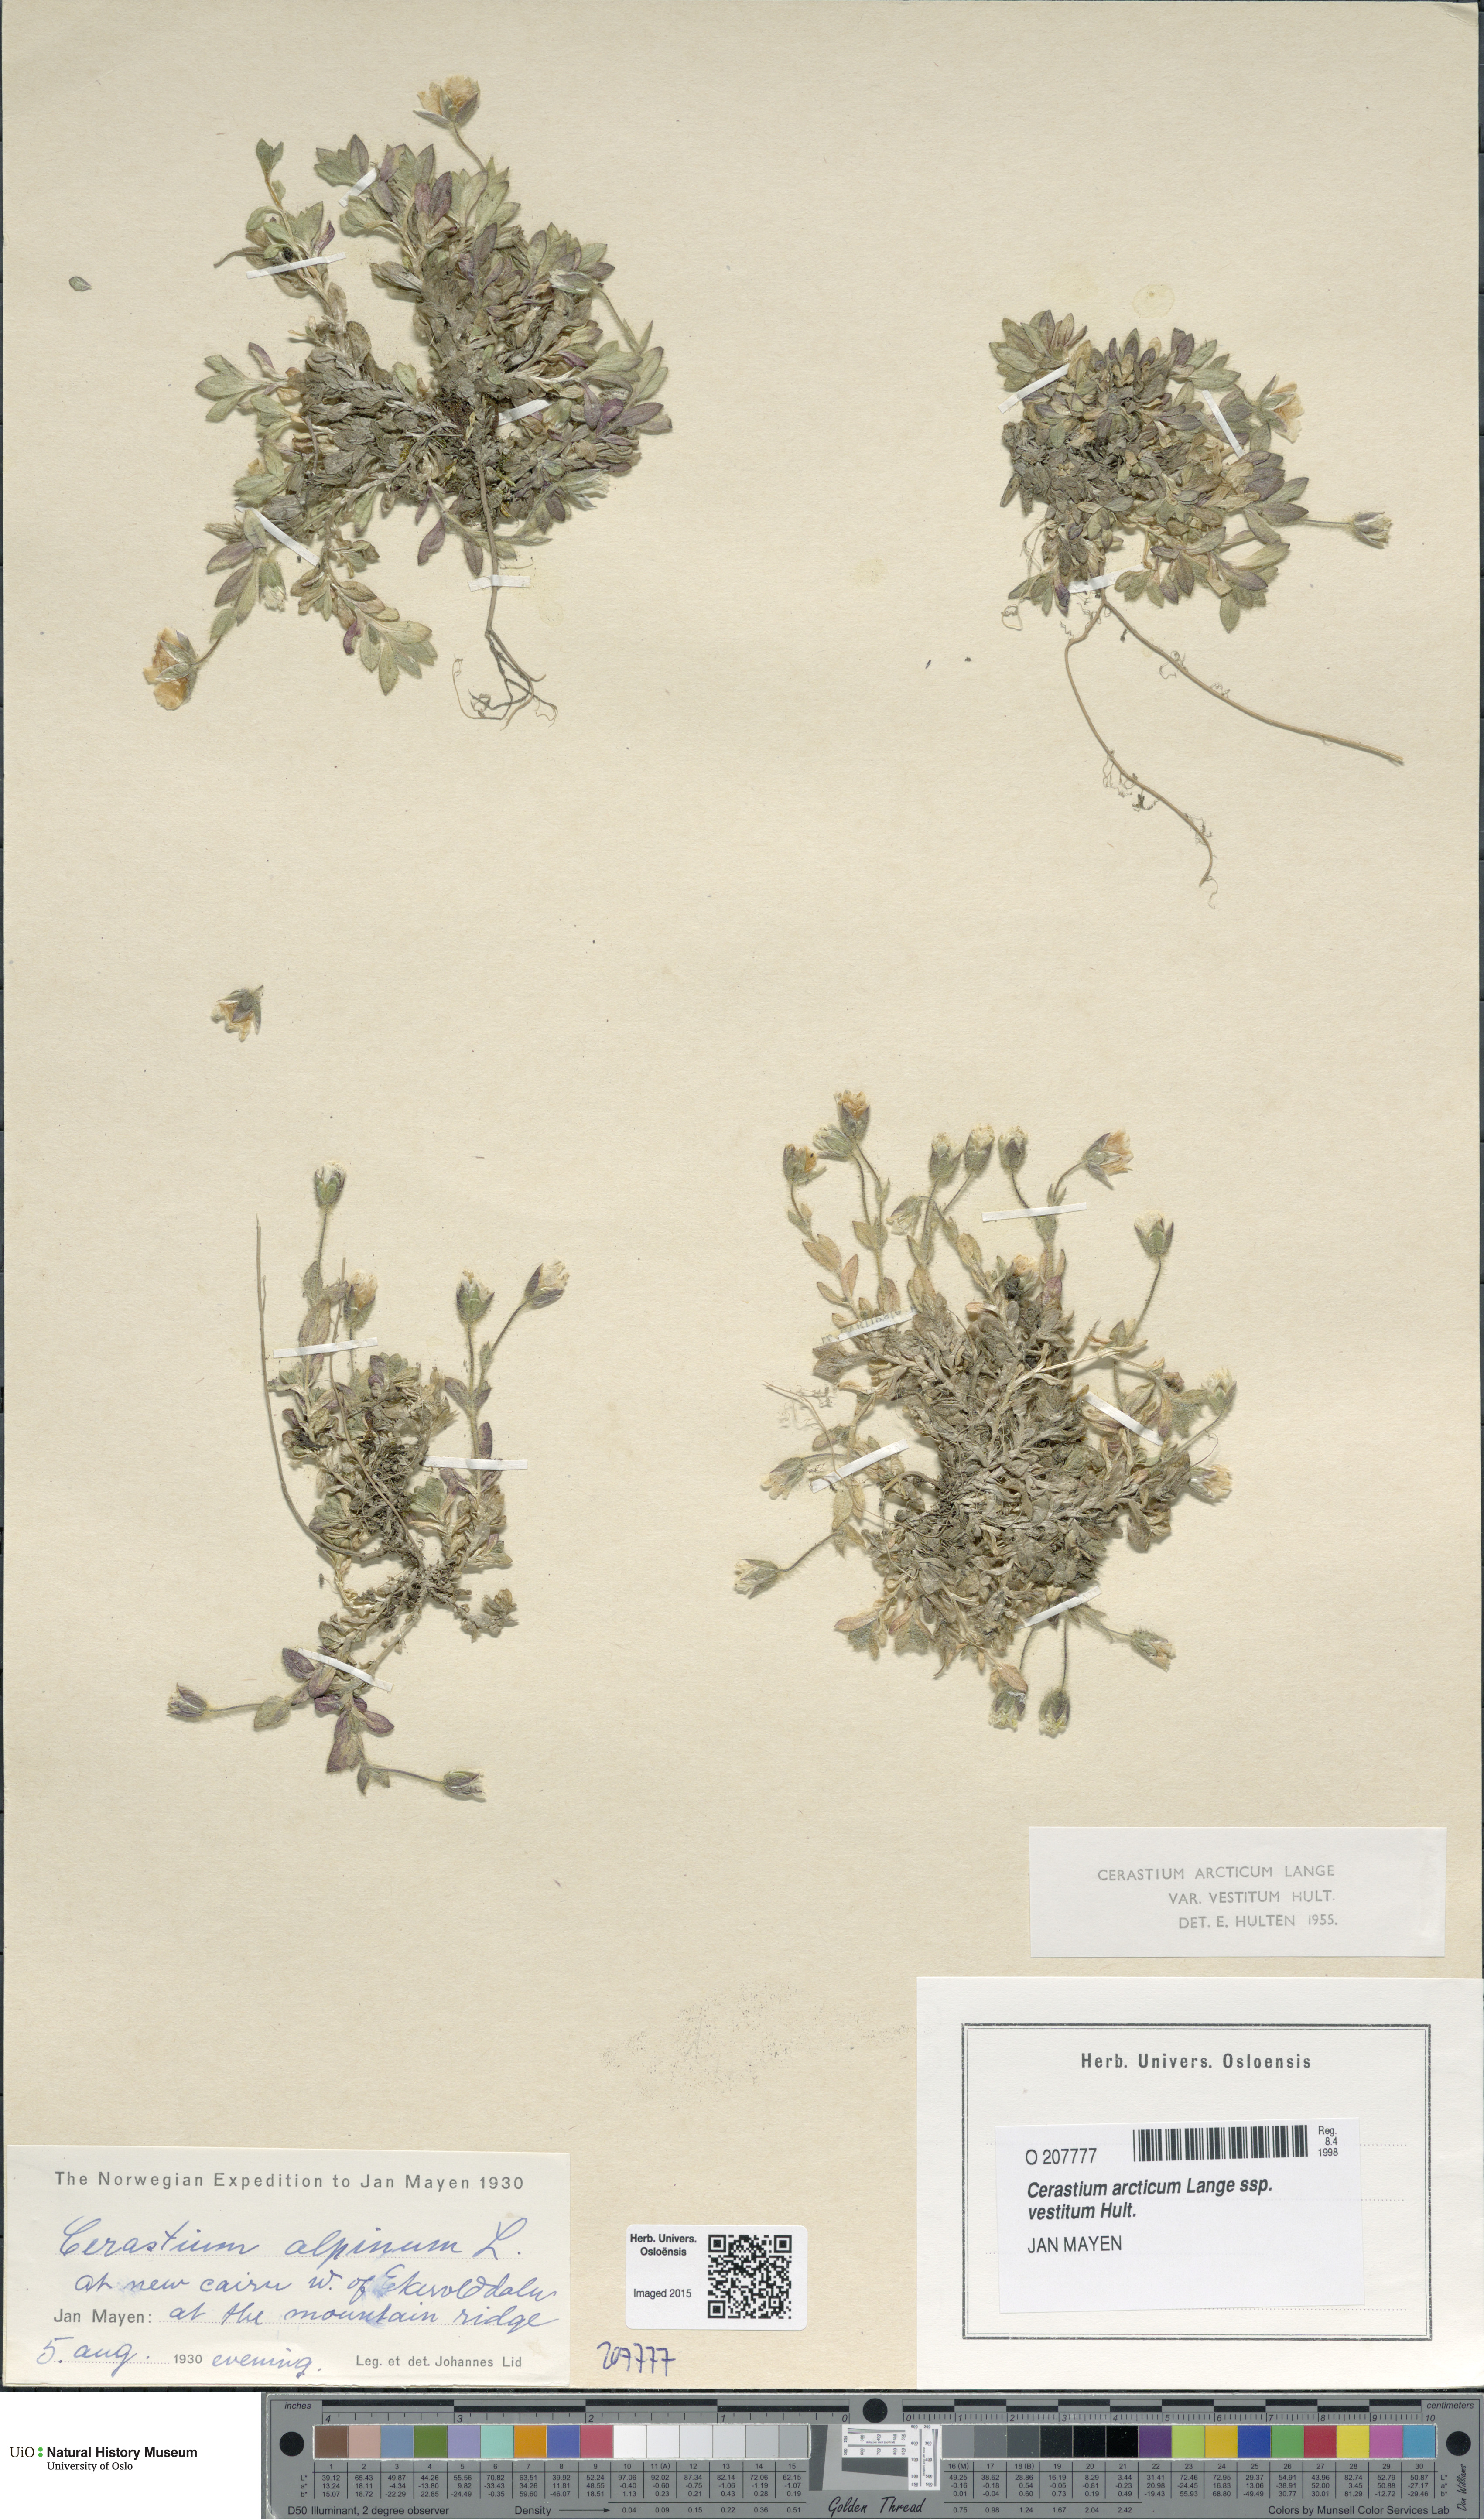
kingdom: Plantae
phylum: Tracheophyta
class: Magnoliopsida
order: Caryophyllales
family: Caryophyllaceae
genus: Cerastium
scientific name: Cerastium arcticum
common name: Arctic mouse-ear
